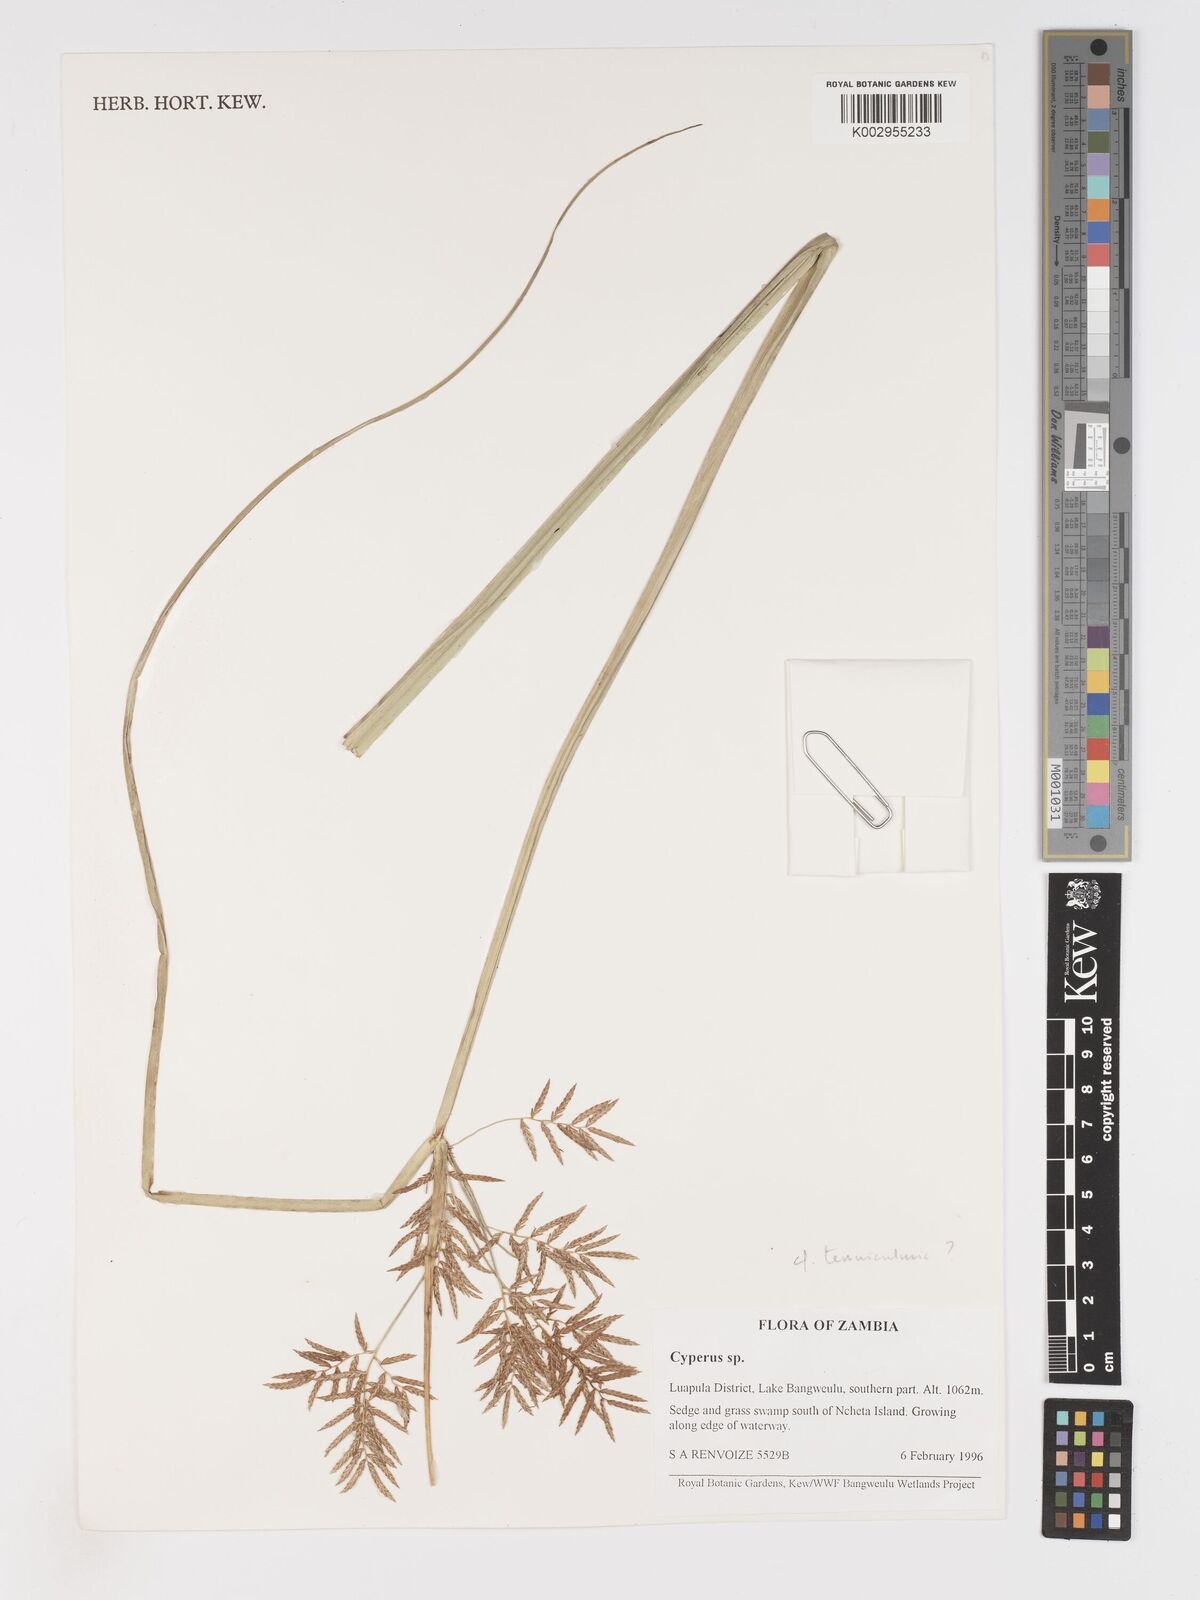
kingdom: Plantae
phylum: Tracheophyta
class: Liliopsida
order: Poales
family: Cyperaceae
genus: Cyperus
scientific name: Cyperus
